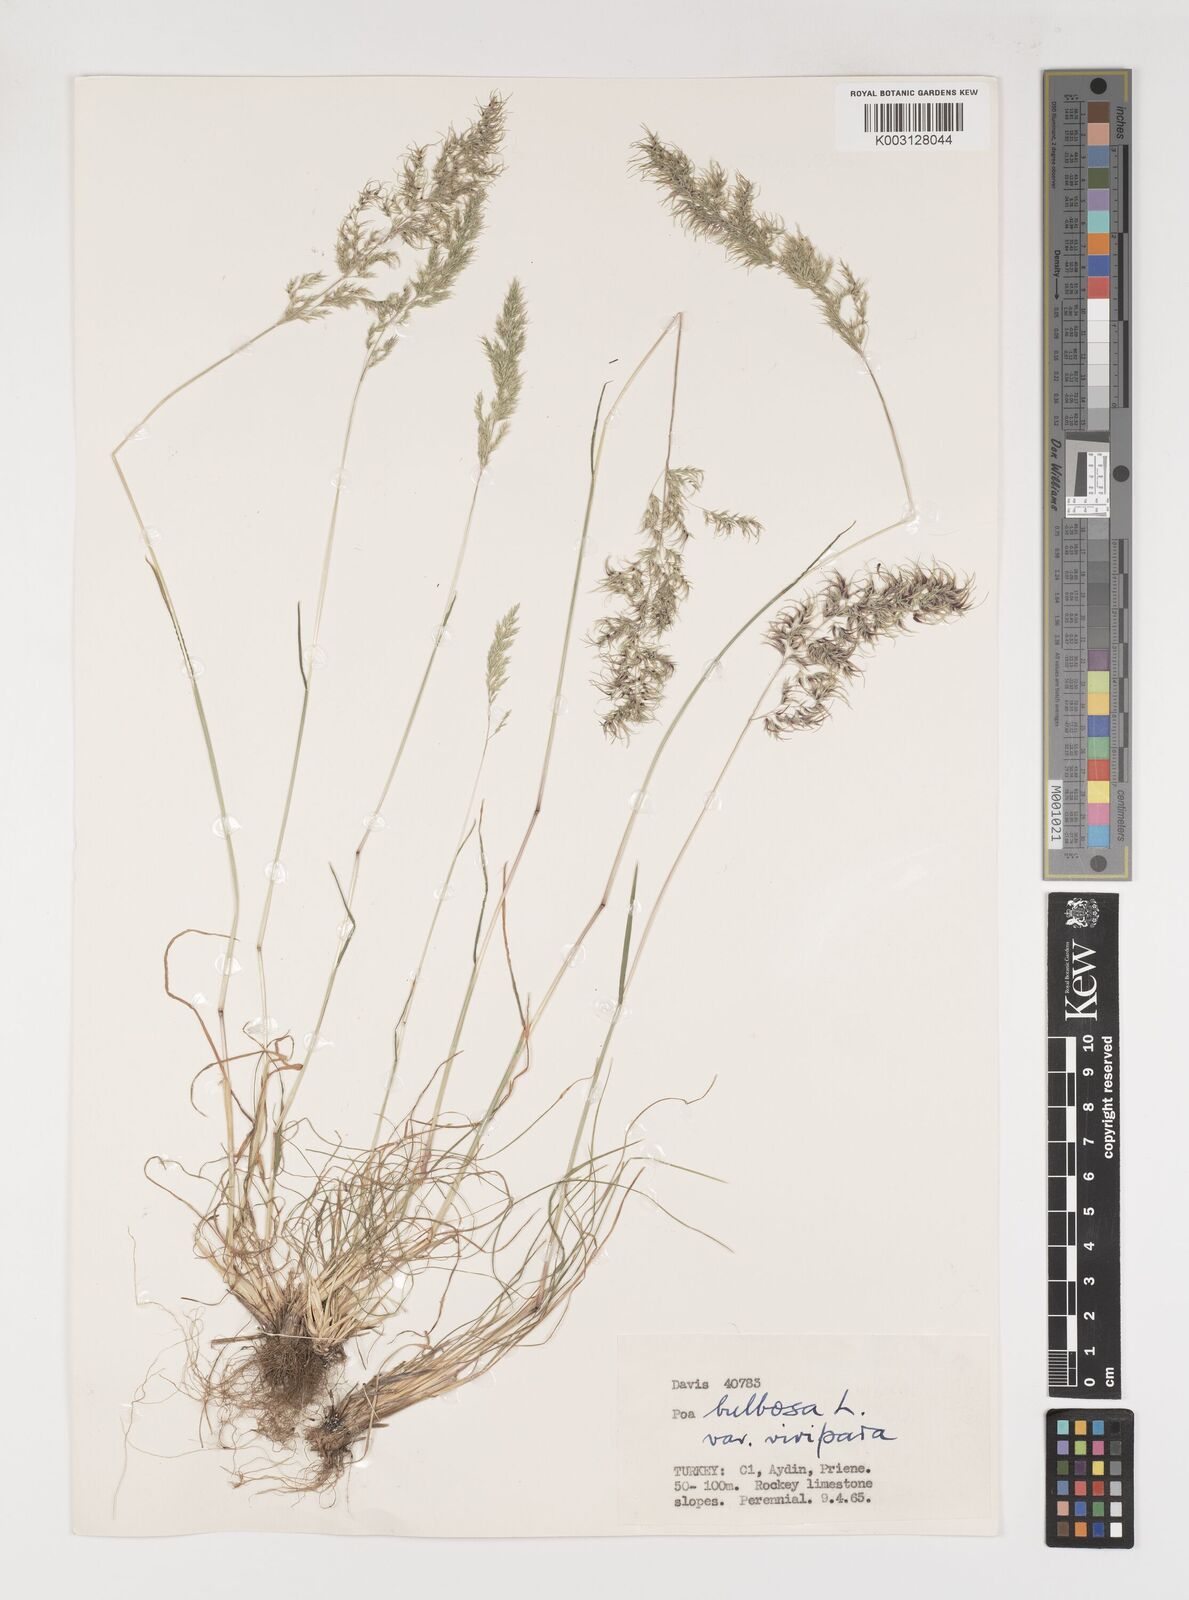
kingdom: Plantae
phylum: Tracheophyta
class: Liliopsida
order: Poales
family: Poaceae
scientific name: Poaceae
